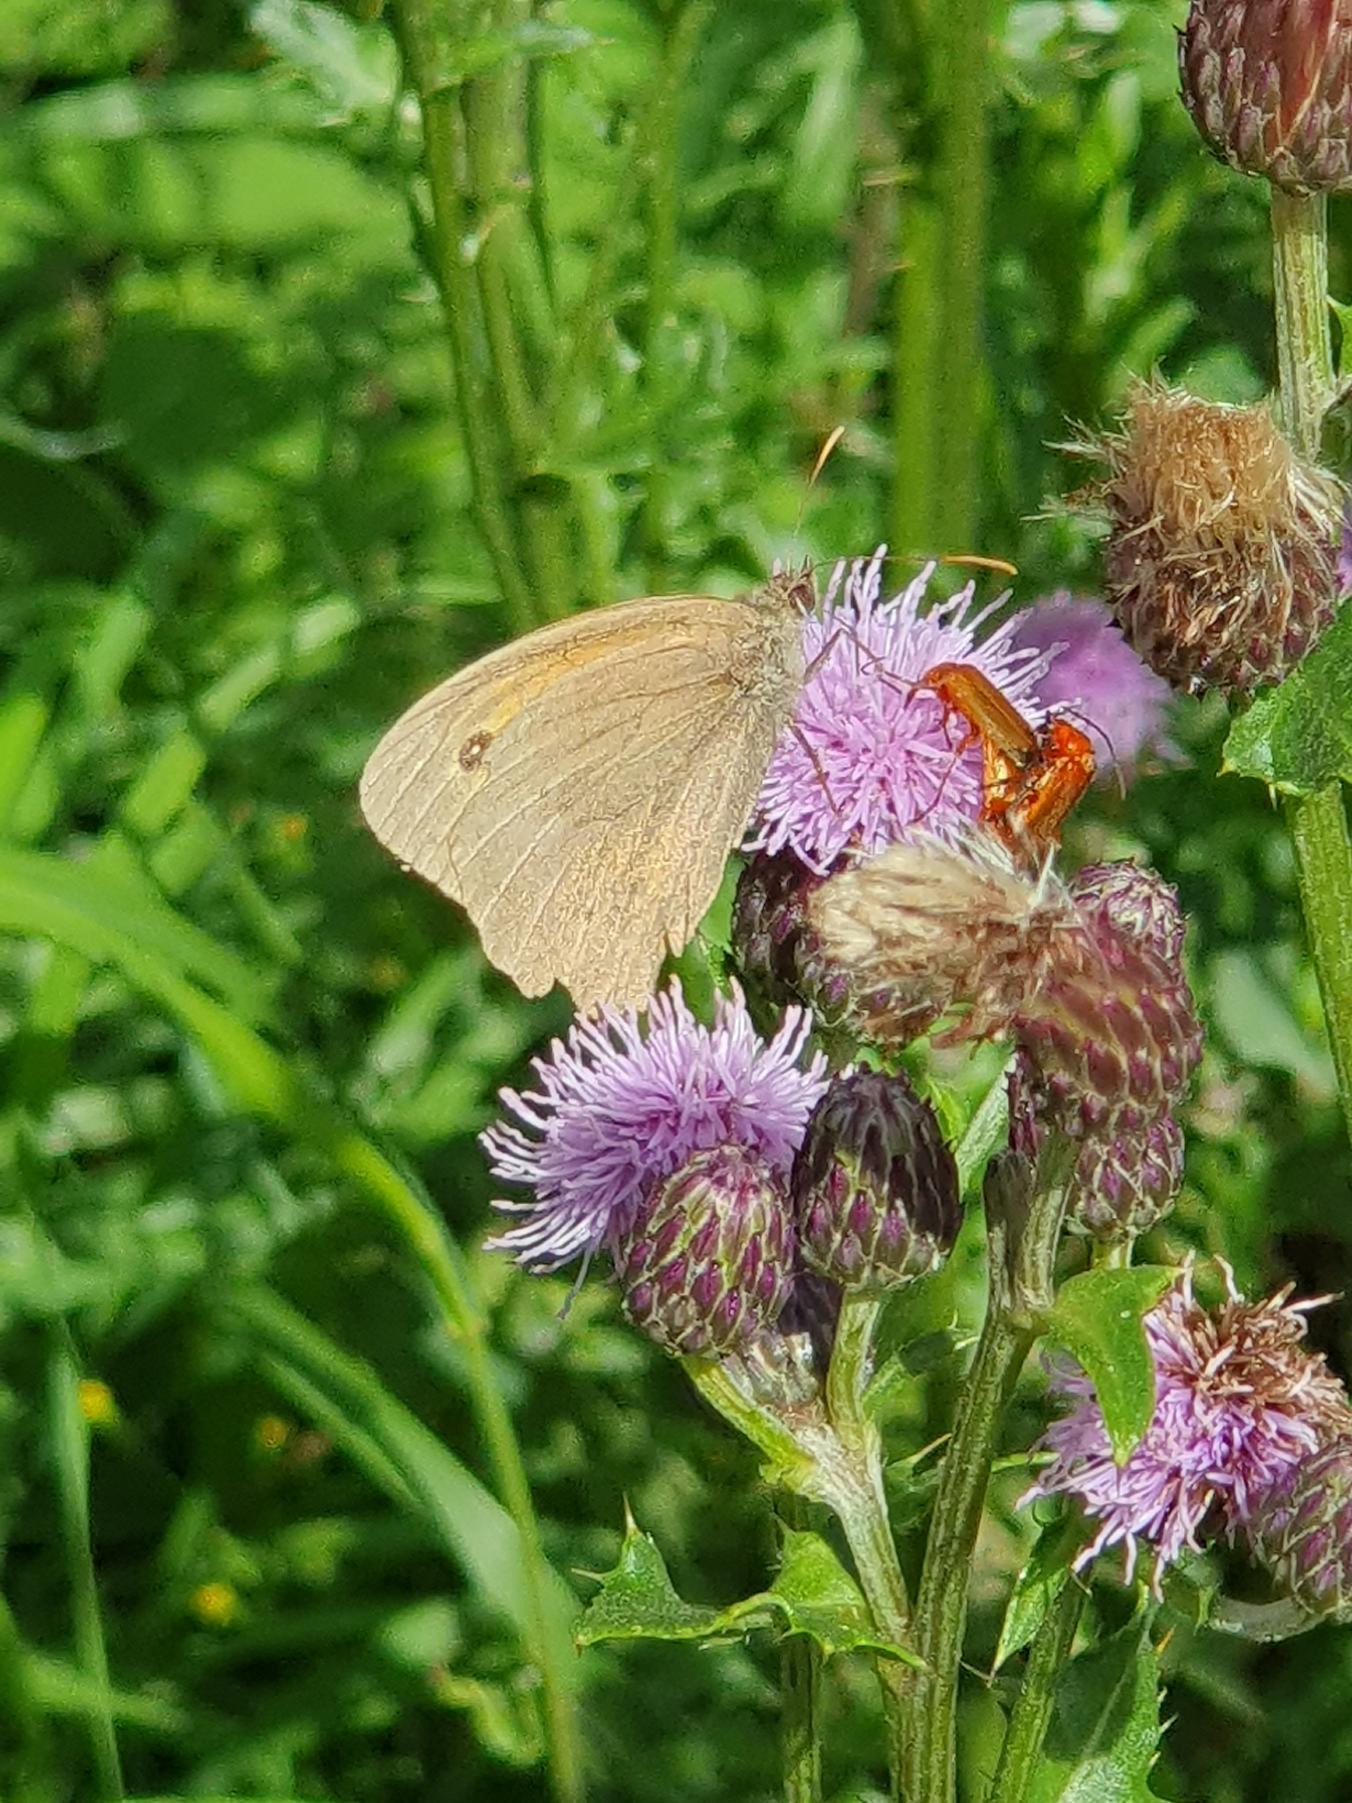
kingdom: Animalia
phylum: Arthropoda
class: Insecta
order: Lepidoptera
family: Nymphalidae
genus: Maniola
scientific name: Maniola jurtina
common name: Græsrandøje
